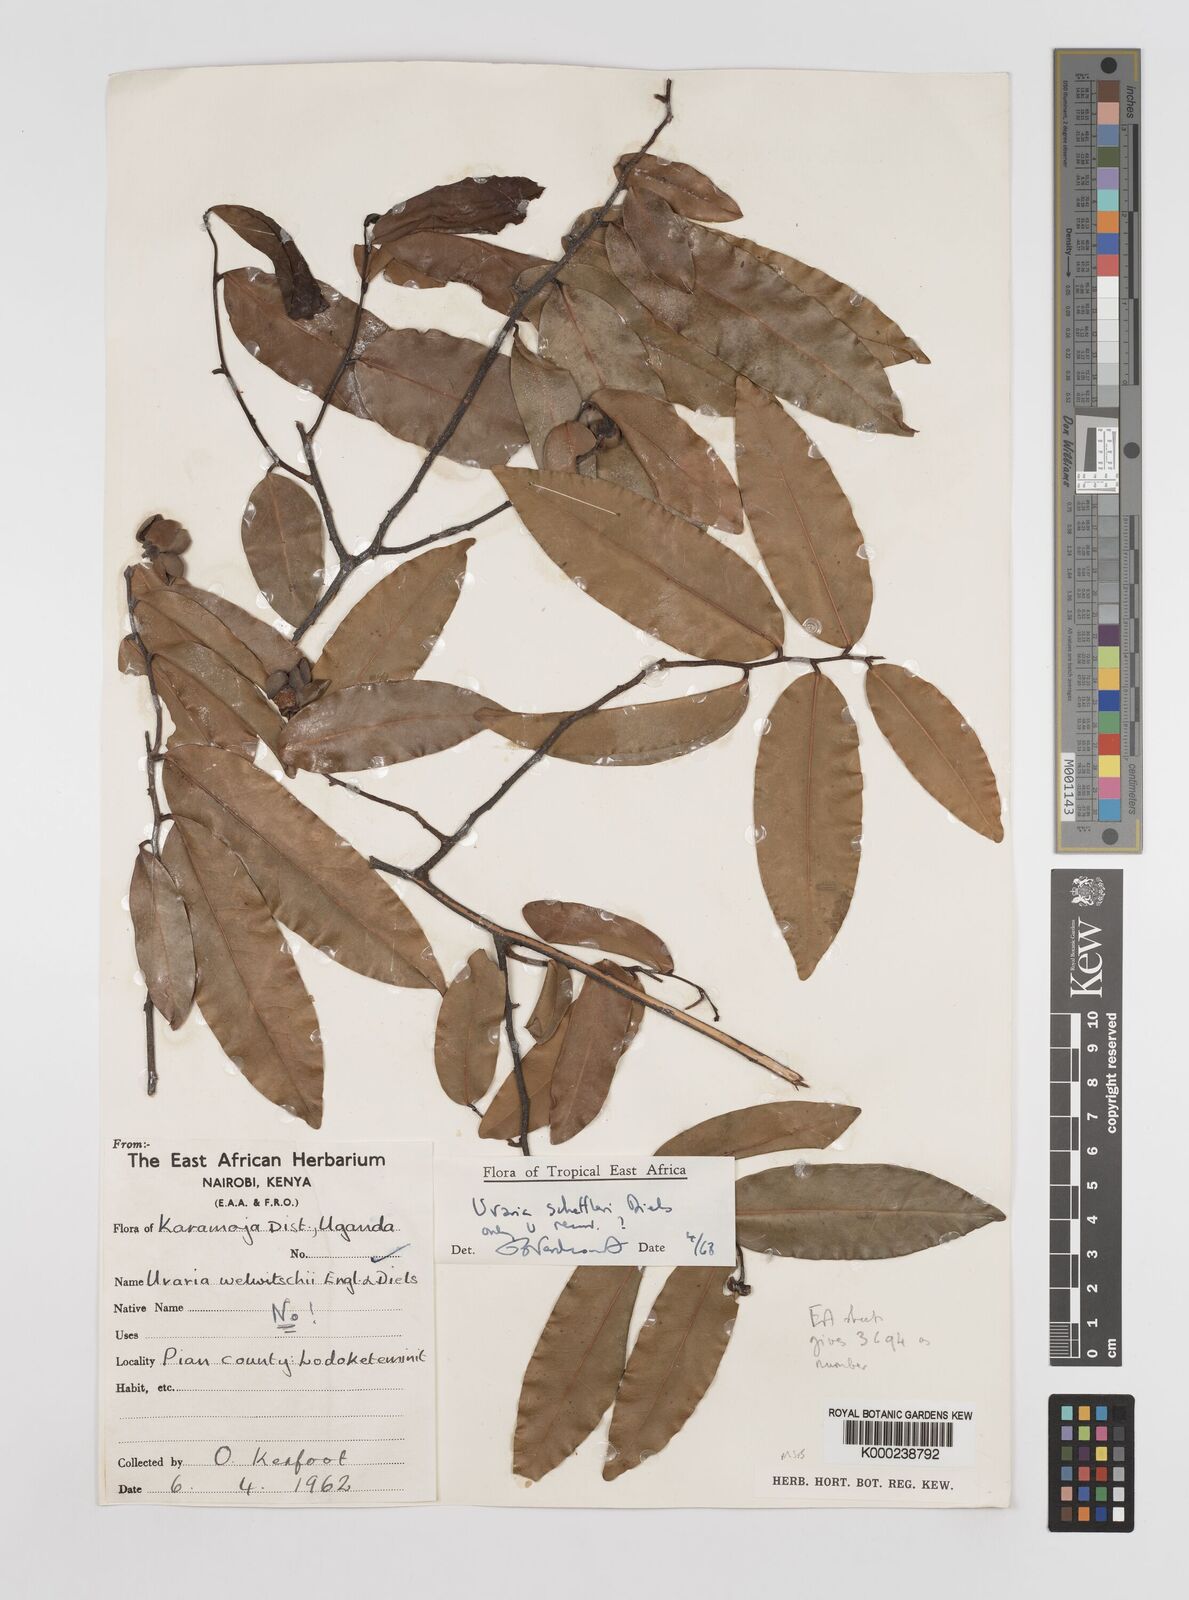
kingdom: Plantae
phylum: Tracheophyta
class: Magnoliopsida
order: Magnoliales
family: Annonaceae
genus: Uvaria
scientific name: Uvaria scheffleri
